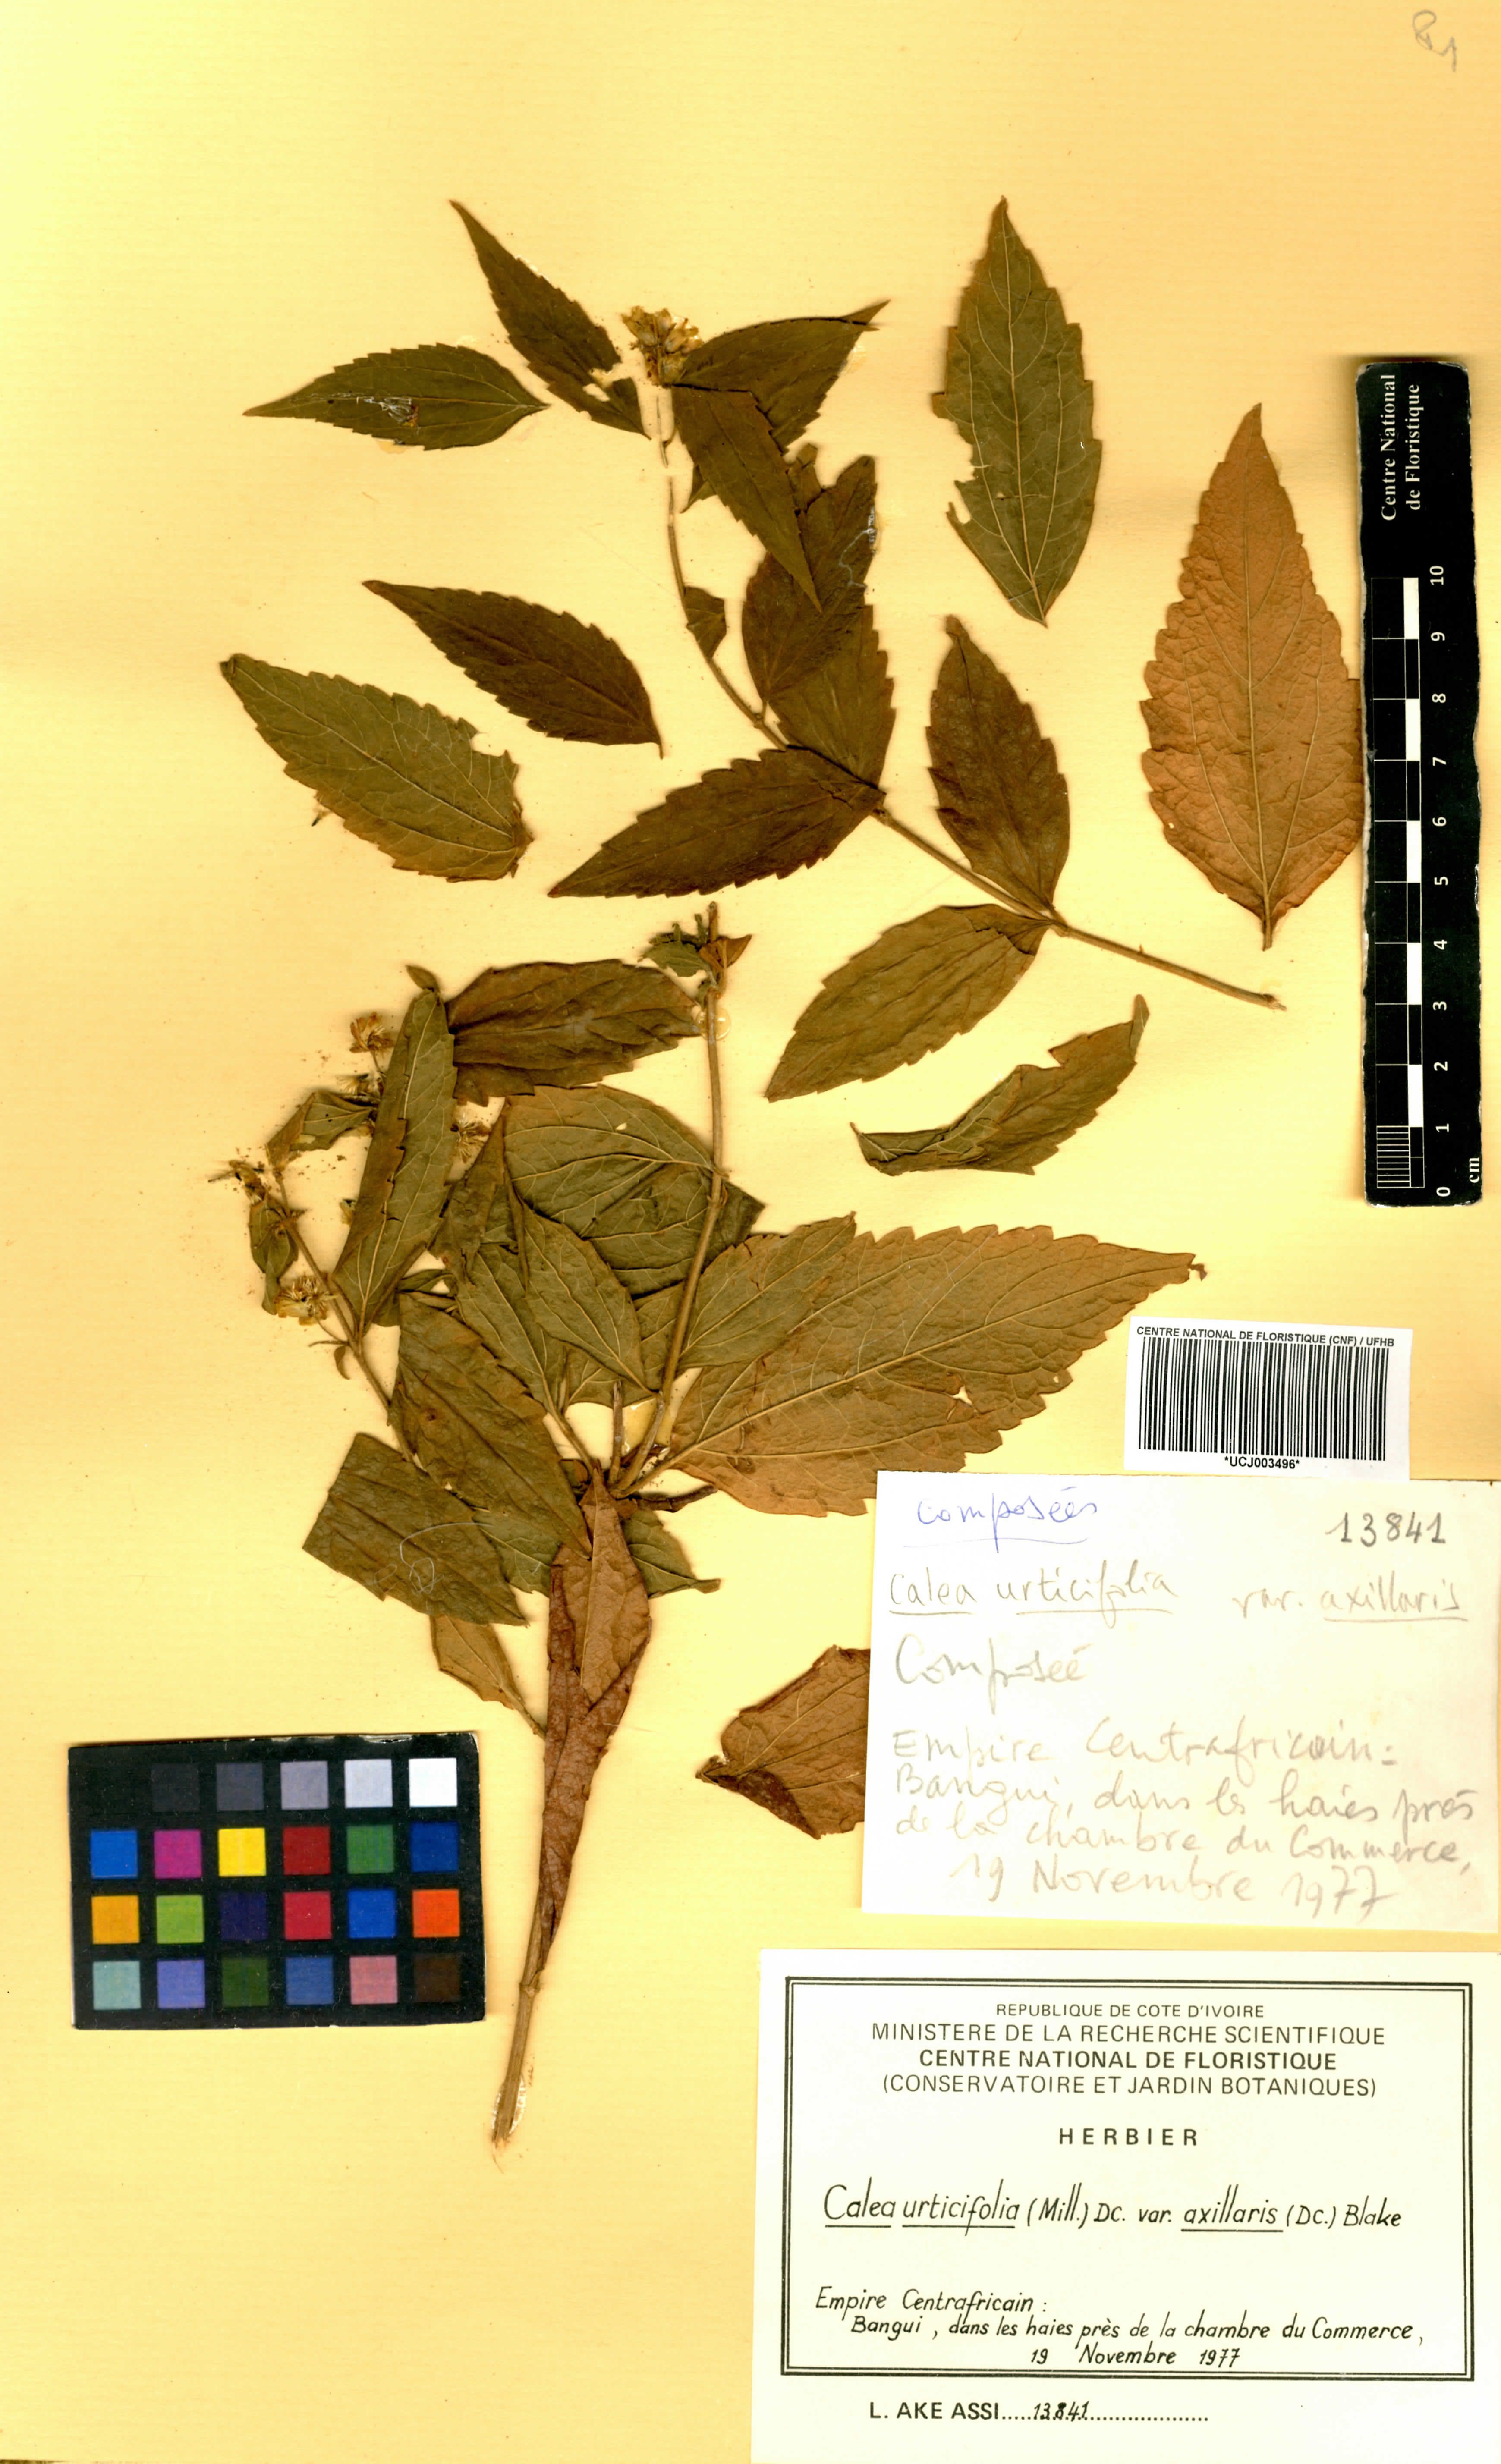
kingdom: Plantae
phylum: Tracheophyta
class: Magnoliopsida
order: Asterales
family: Asteraceae
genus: Calea
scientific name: Calea urticifolia
